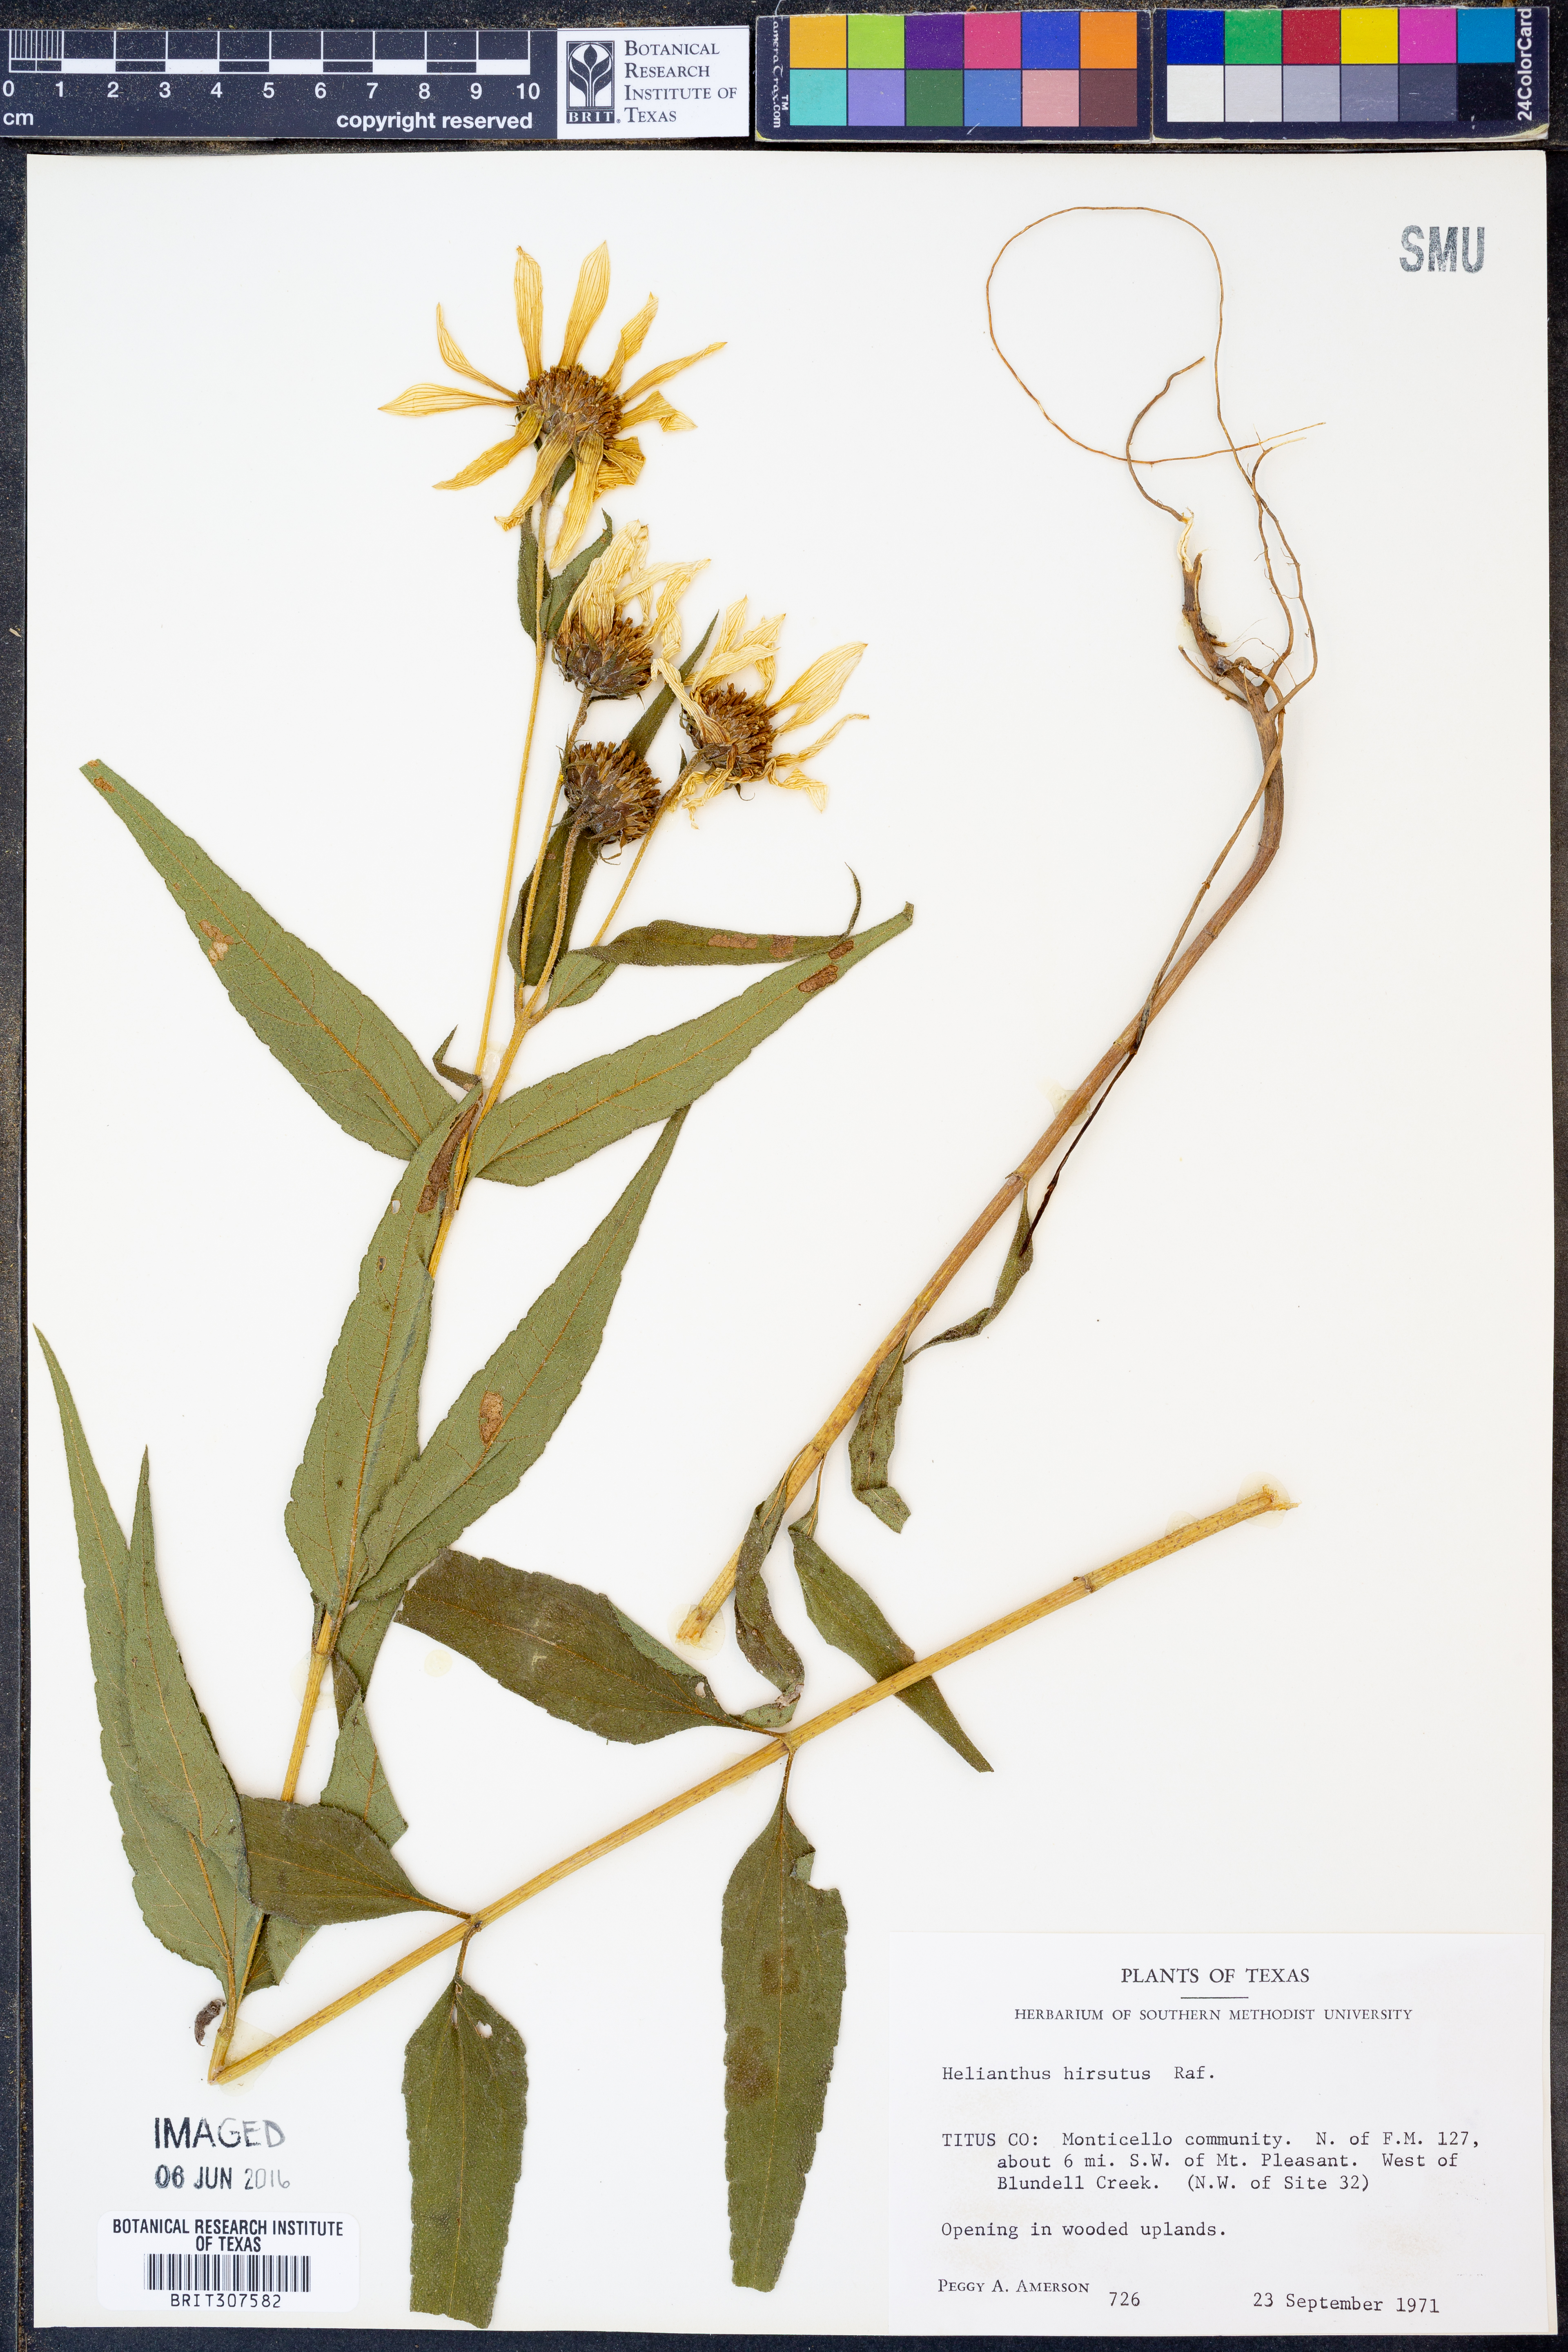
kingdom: Plantae
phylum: Tracheophyta
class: Magnoliopsida
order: Asterales
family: Asteraceae
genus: Helianthus
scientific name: Helianthus hirsutus
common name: Hairy sunflower
